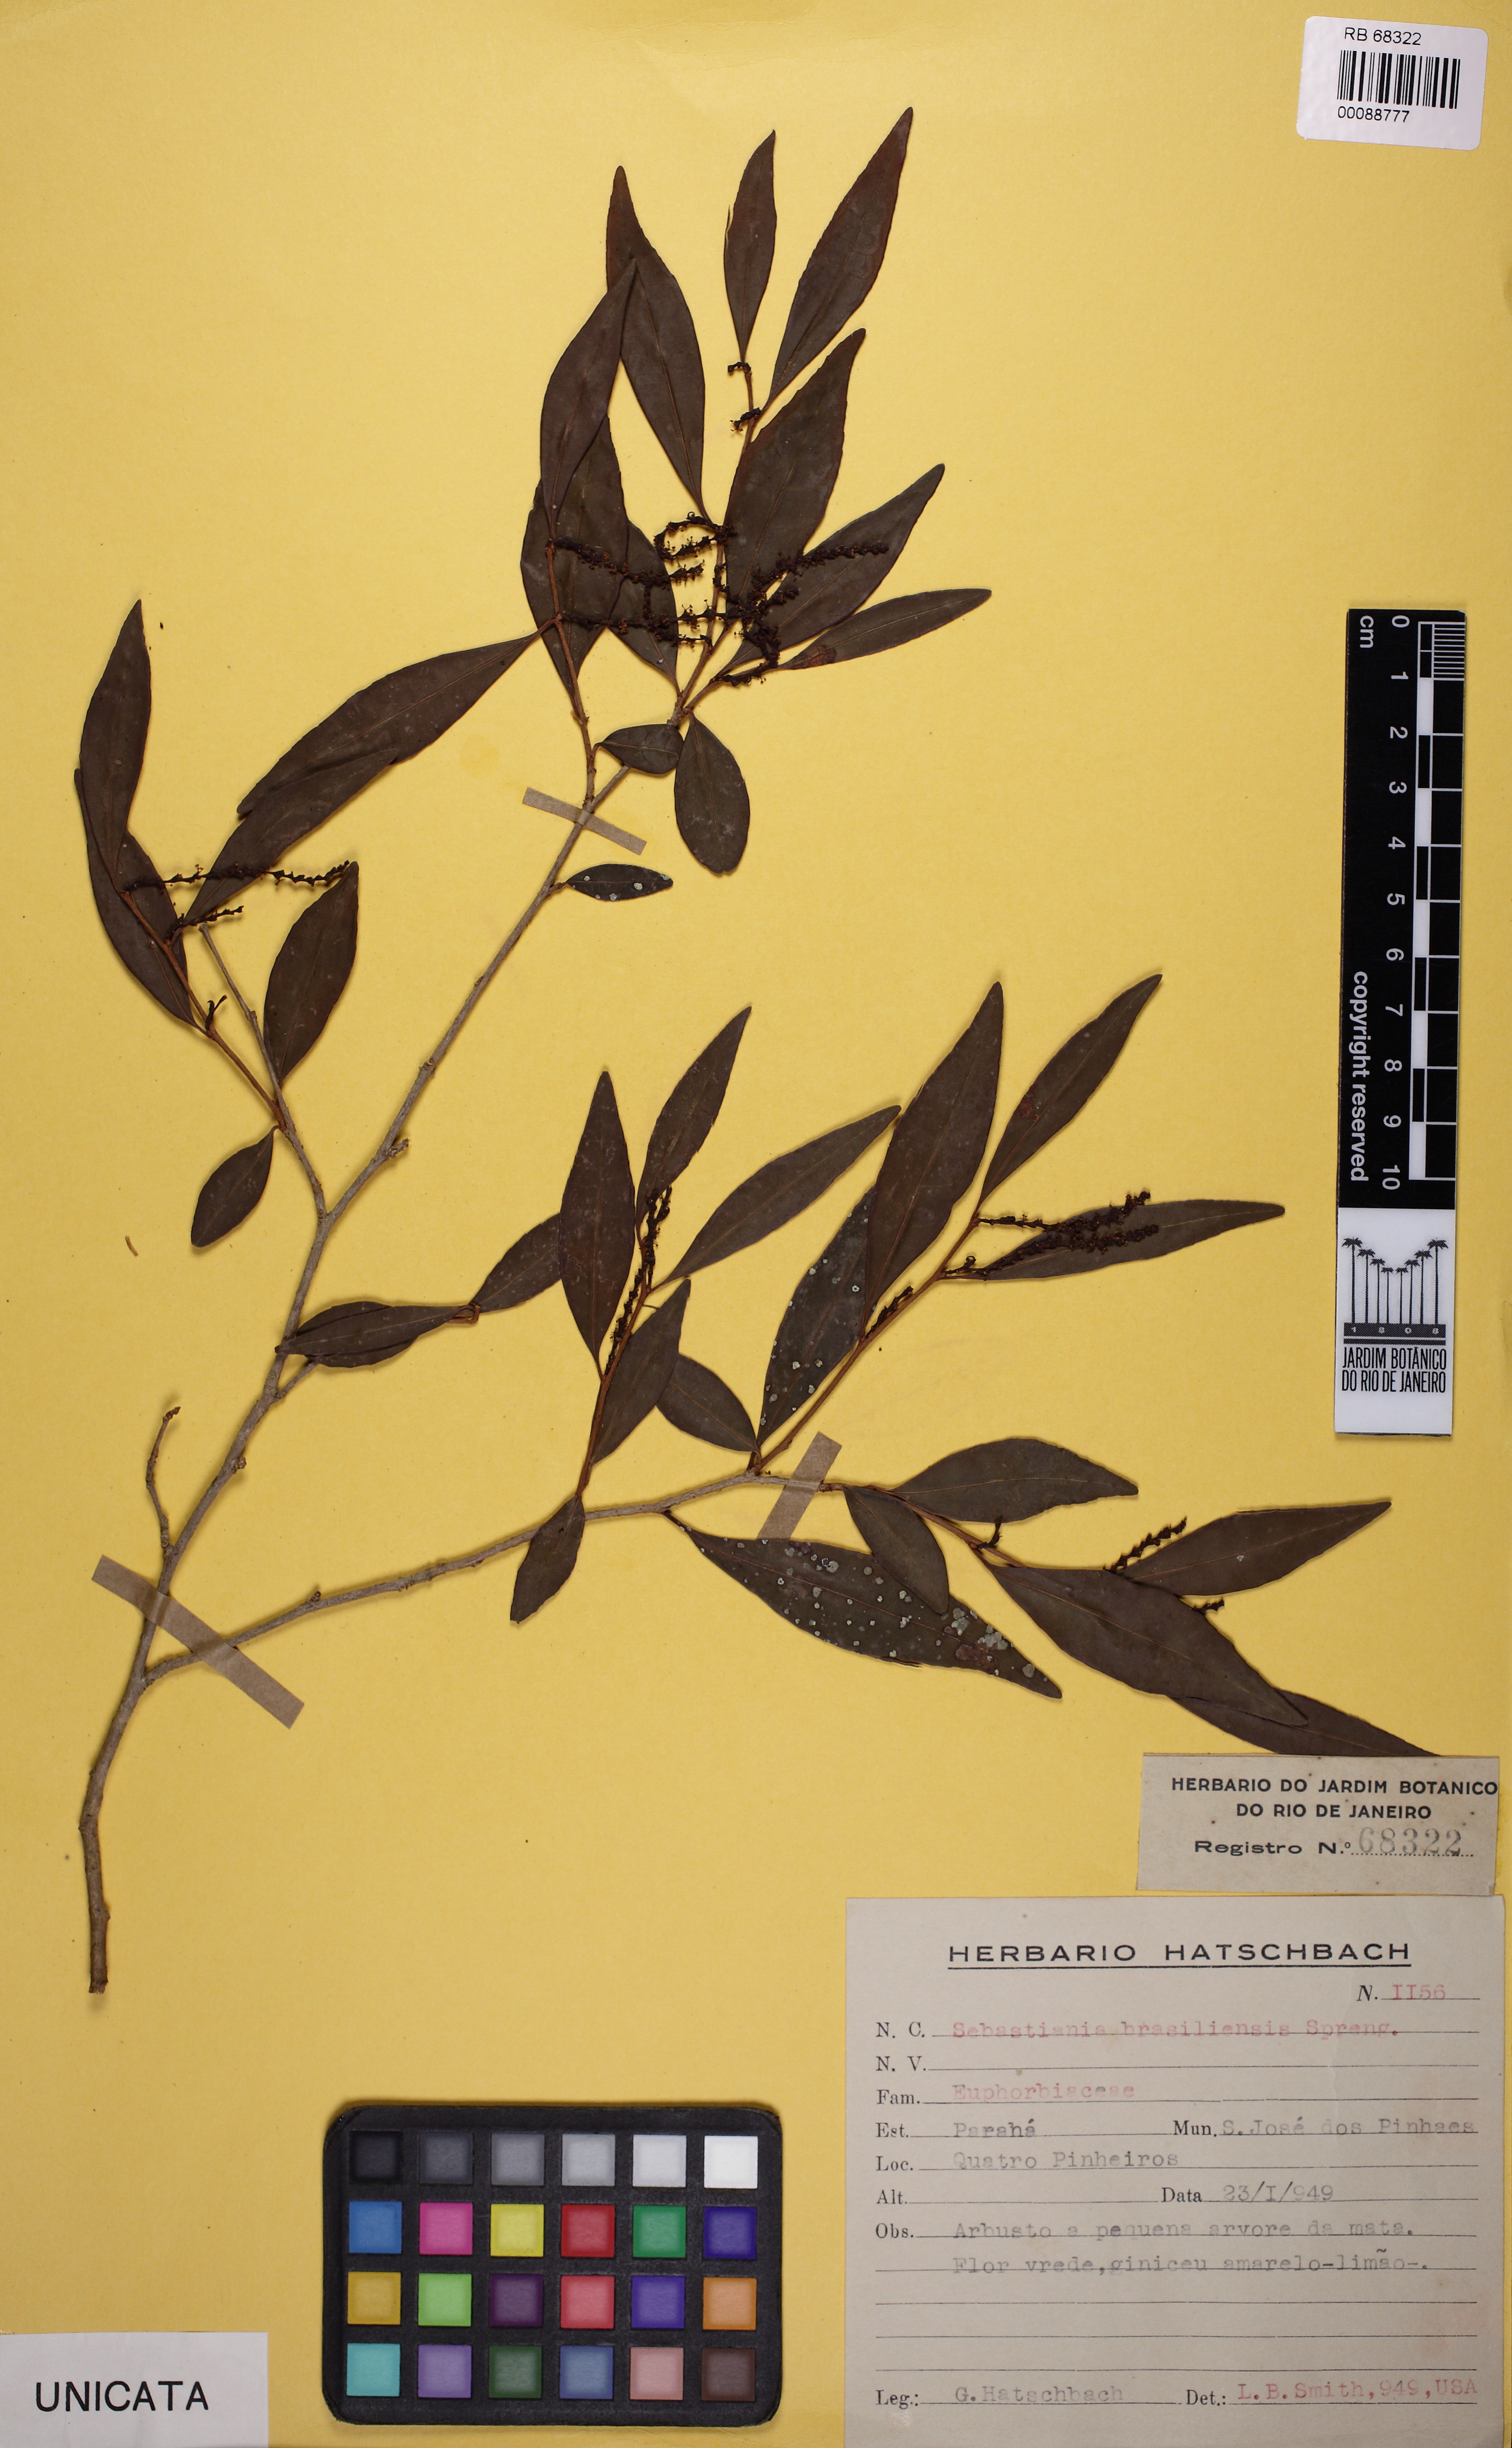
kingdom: Plantae
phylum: Tracheophyta
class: Magnoliopsida
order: Malpighiales
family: Euphorbiaceae
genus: Sebastiania
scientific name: Sebastiania brasiliensis
